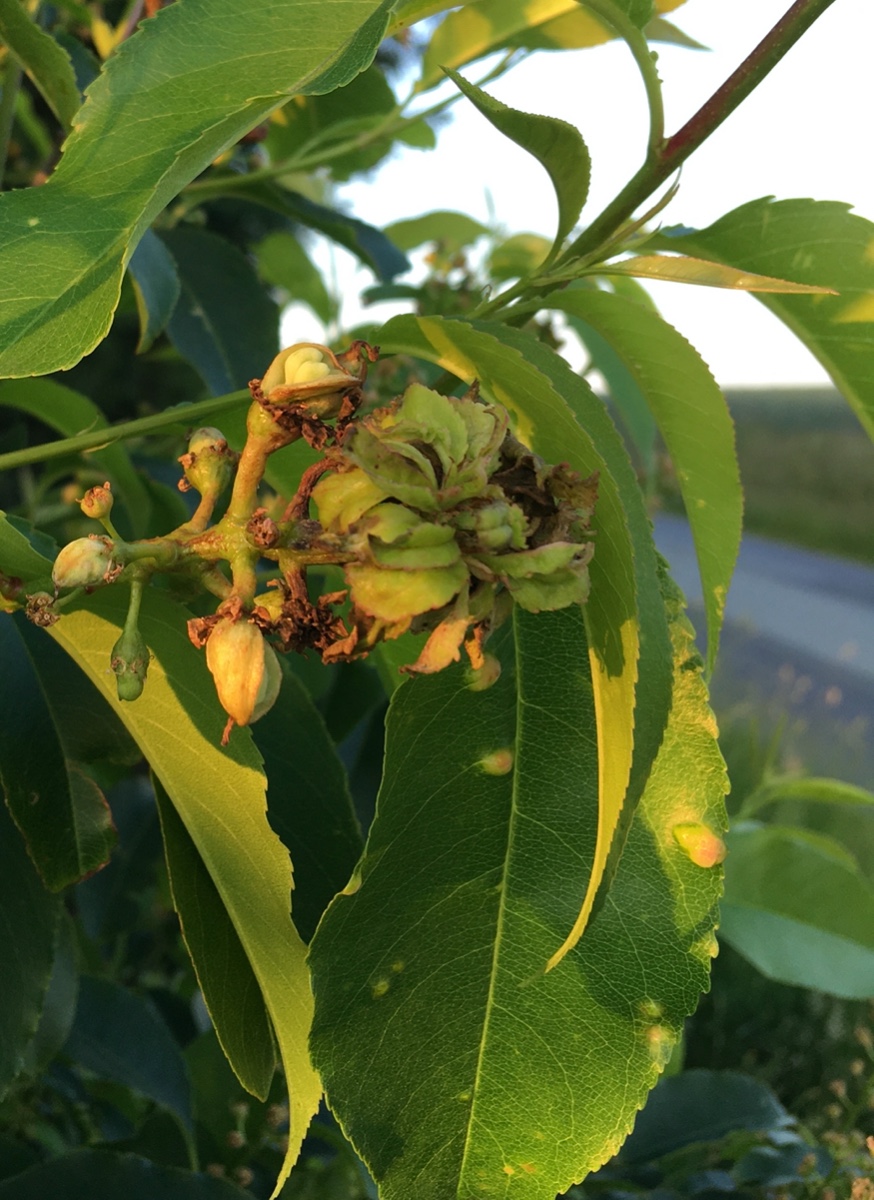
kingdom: Fungi
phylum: Ascomycota
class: Taphrinomycetes
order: Taphrinales
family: Taphrinaceae
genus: Taphrina
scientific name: Taphrina padi
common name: Bird cherry pocket
